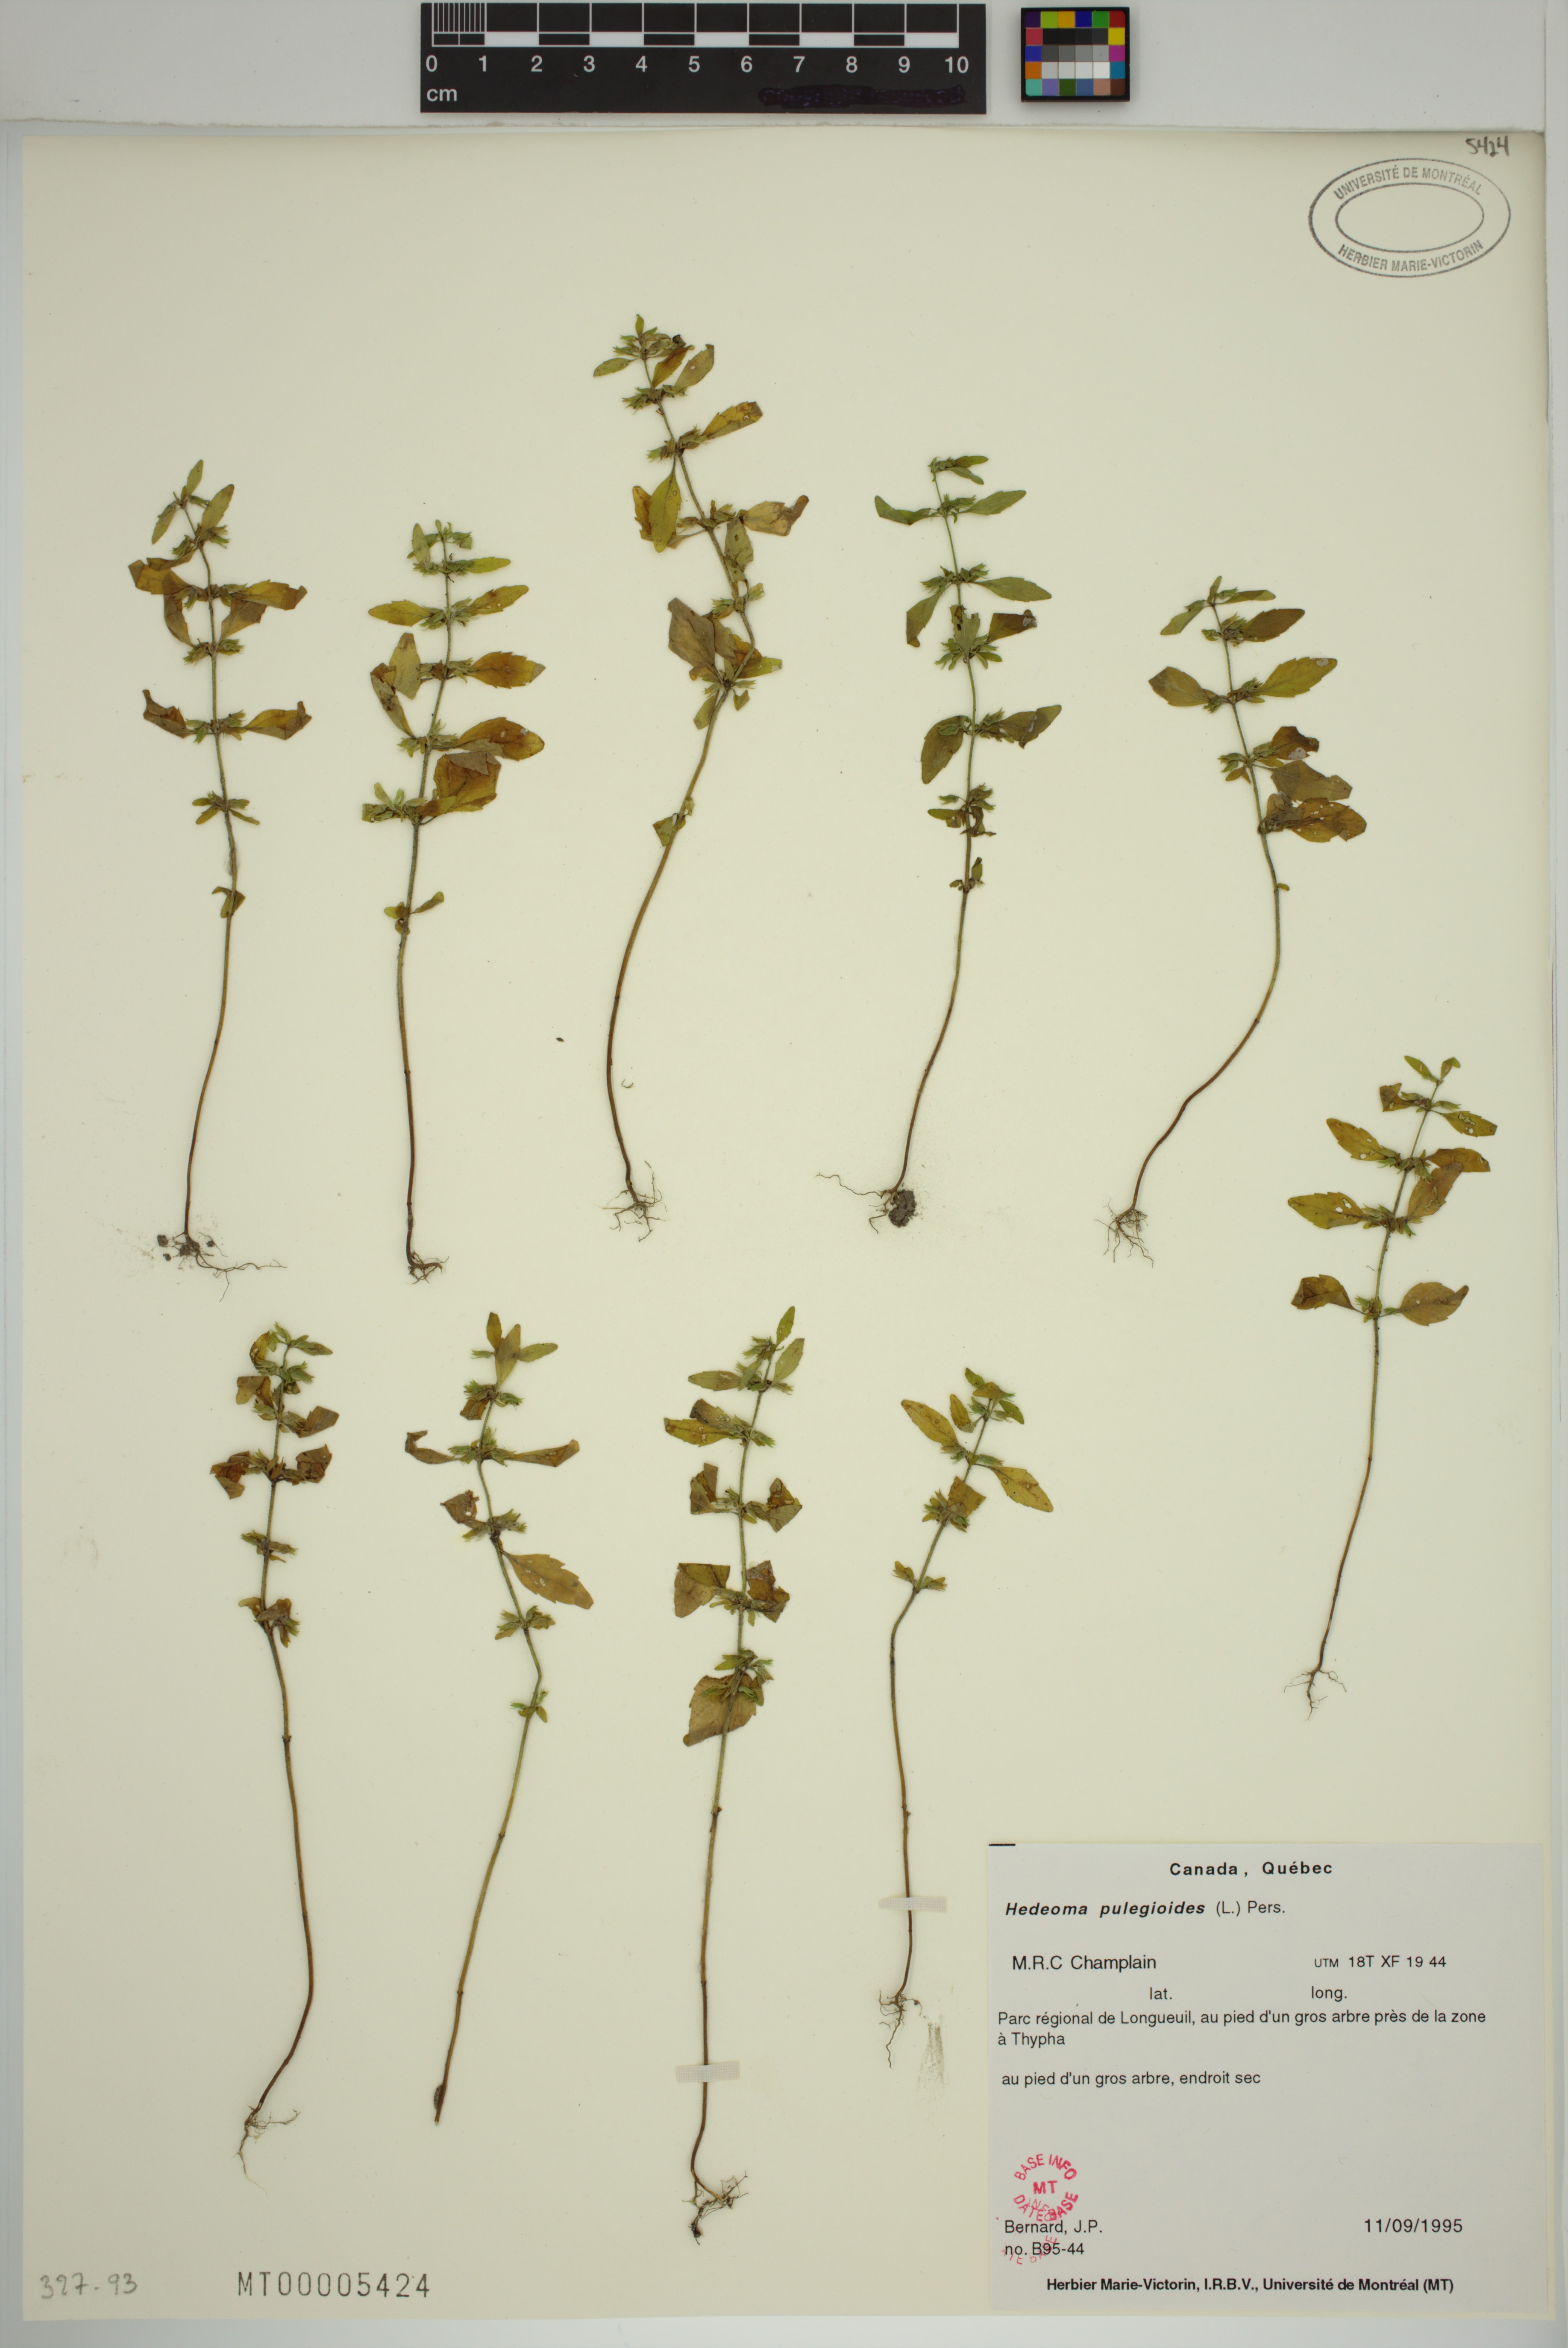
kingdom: Plantae
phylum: Tracheophyta
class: Magnoliopsida
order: Lamiales
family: Lamiaceae
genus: Hedeoma
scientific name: Hedeoma pulegioides
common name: American false pennyroyal
